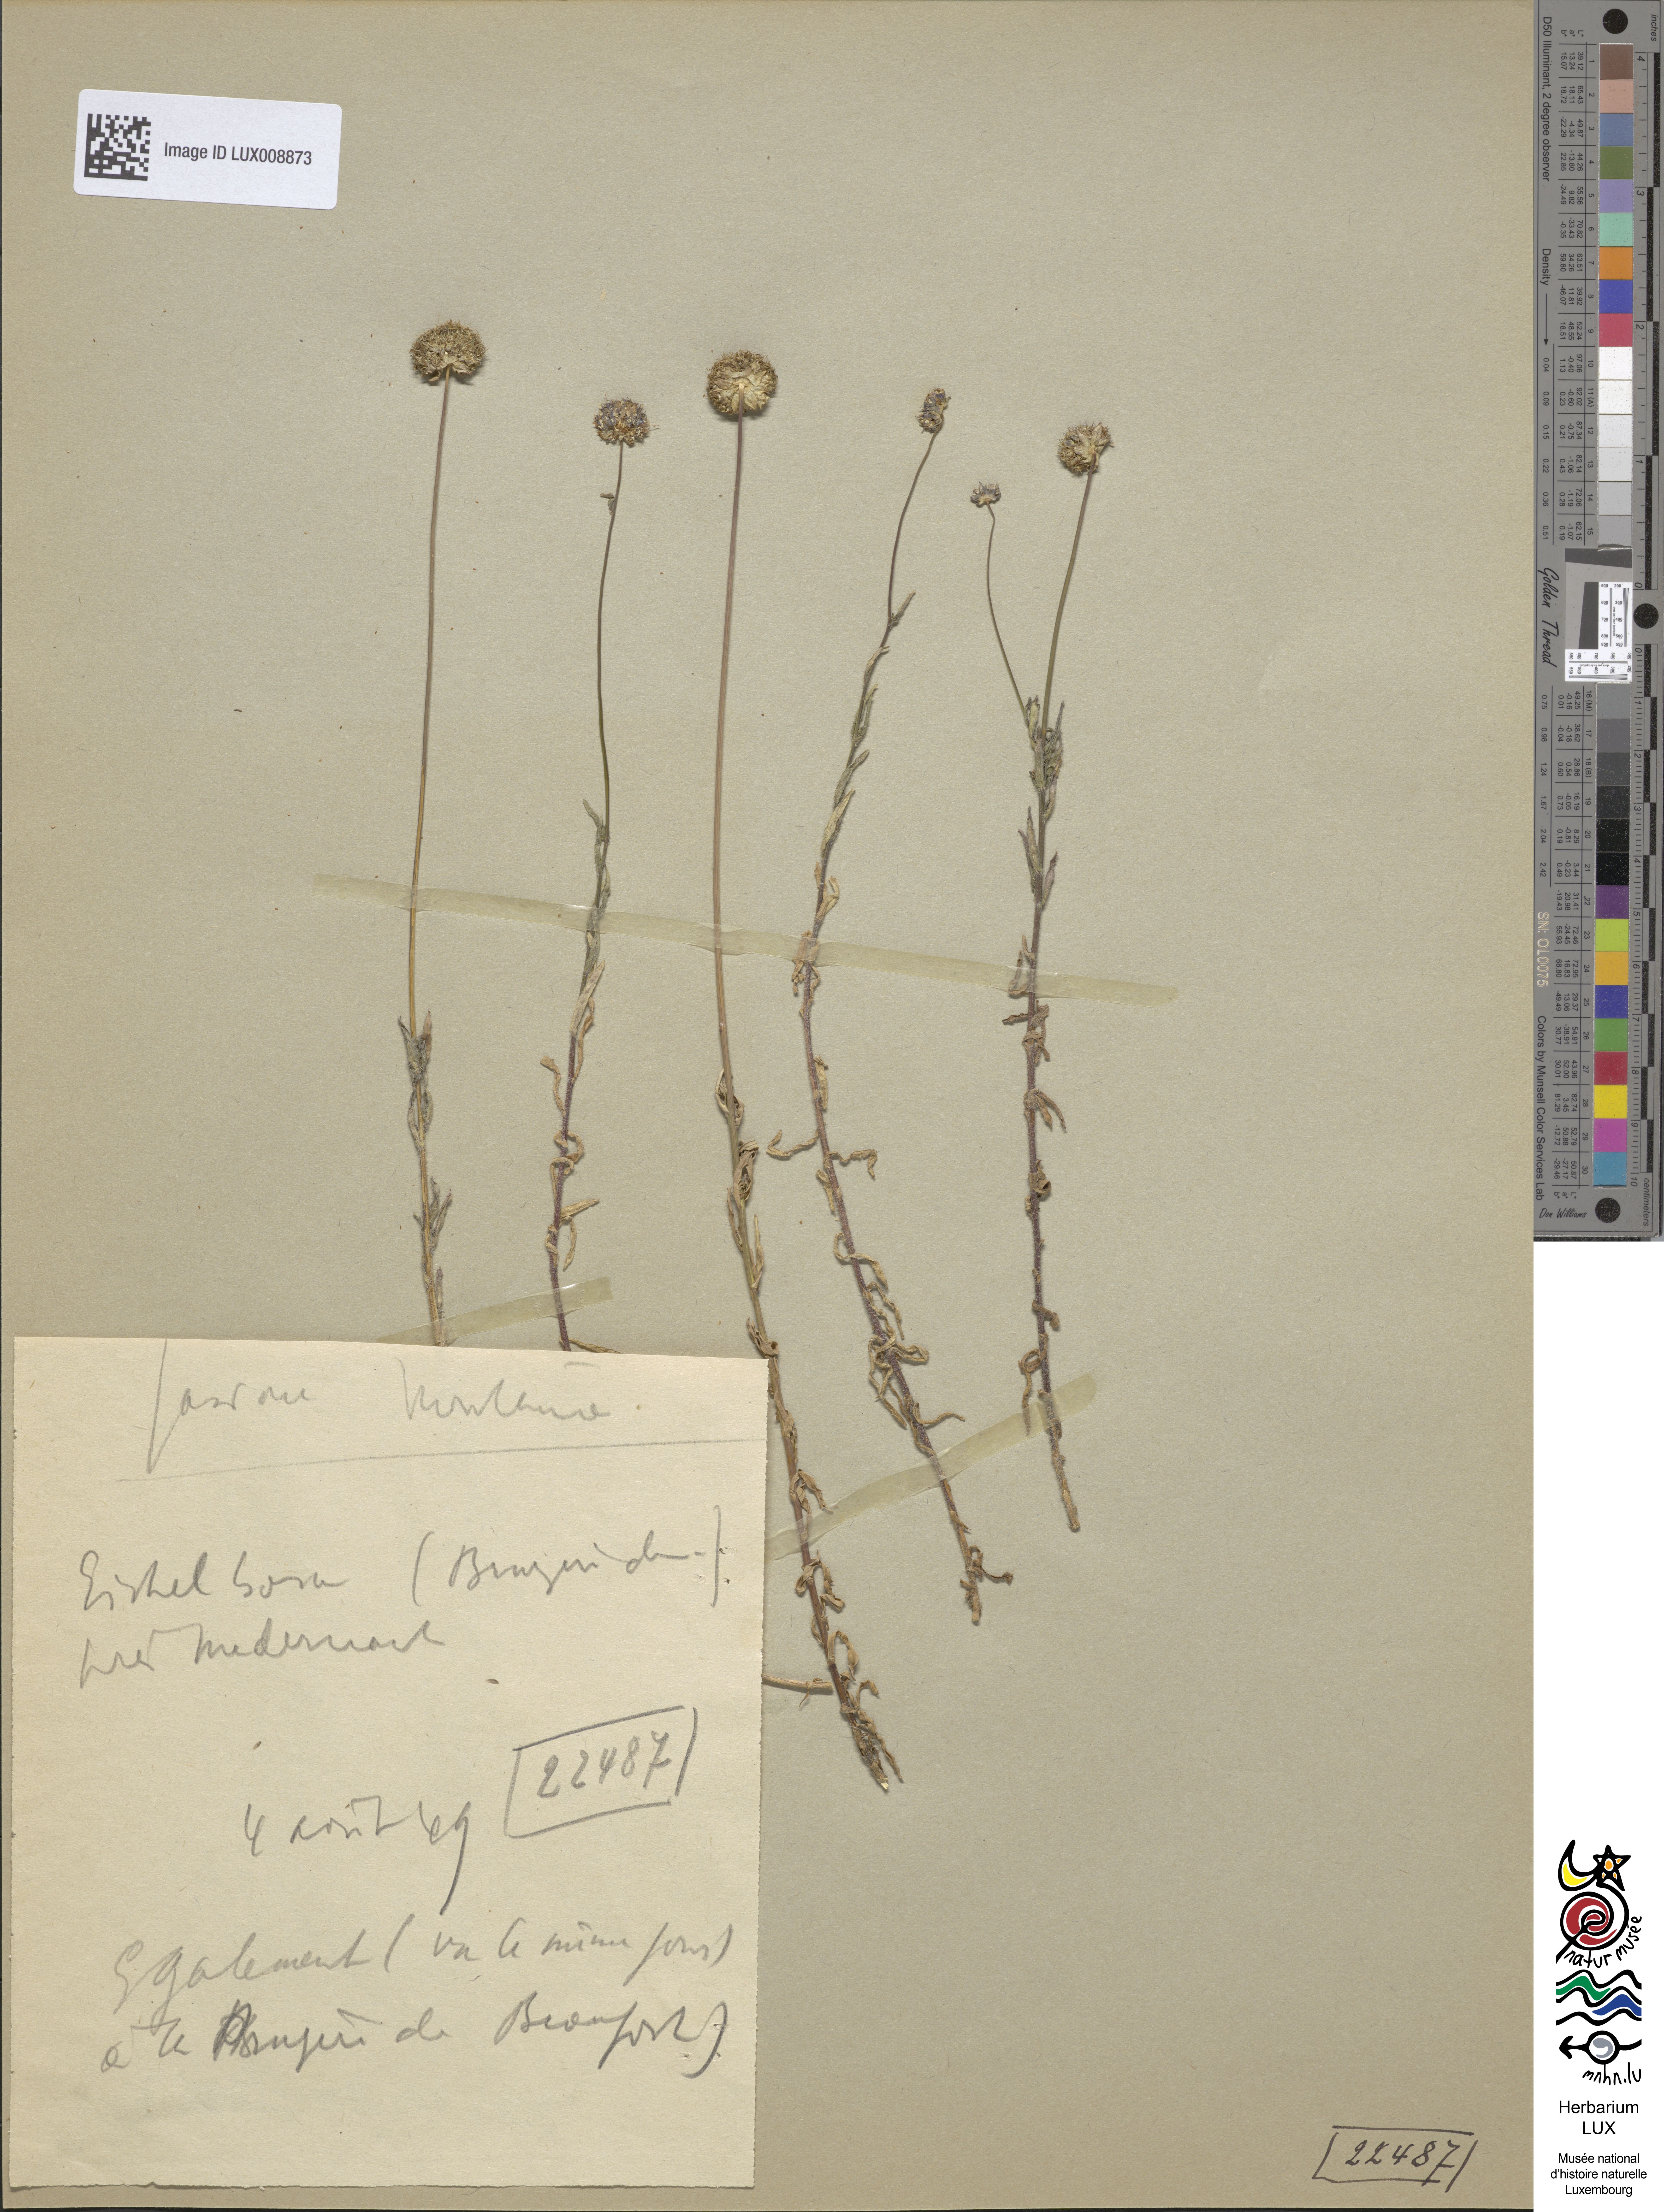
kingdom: Plantae
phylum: Tracheophyta
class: Magnoliopsida
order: Asterales
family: Campanulaceae
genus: Jasione
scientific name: Jasione montana
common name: Sheep's-bit
